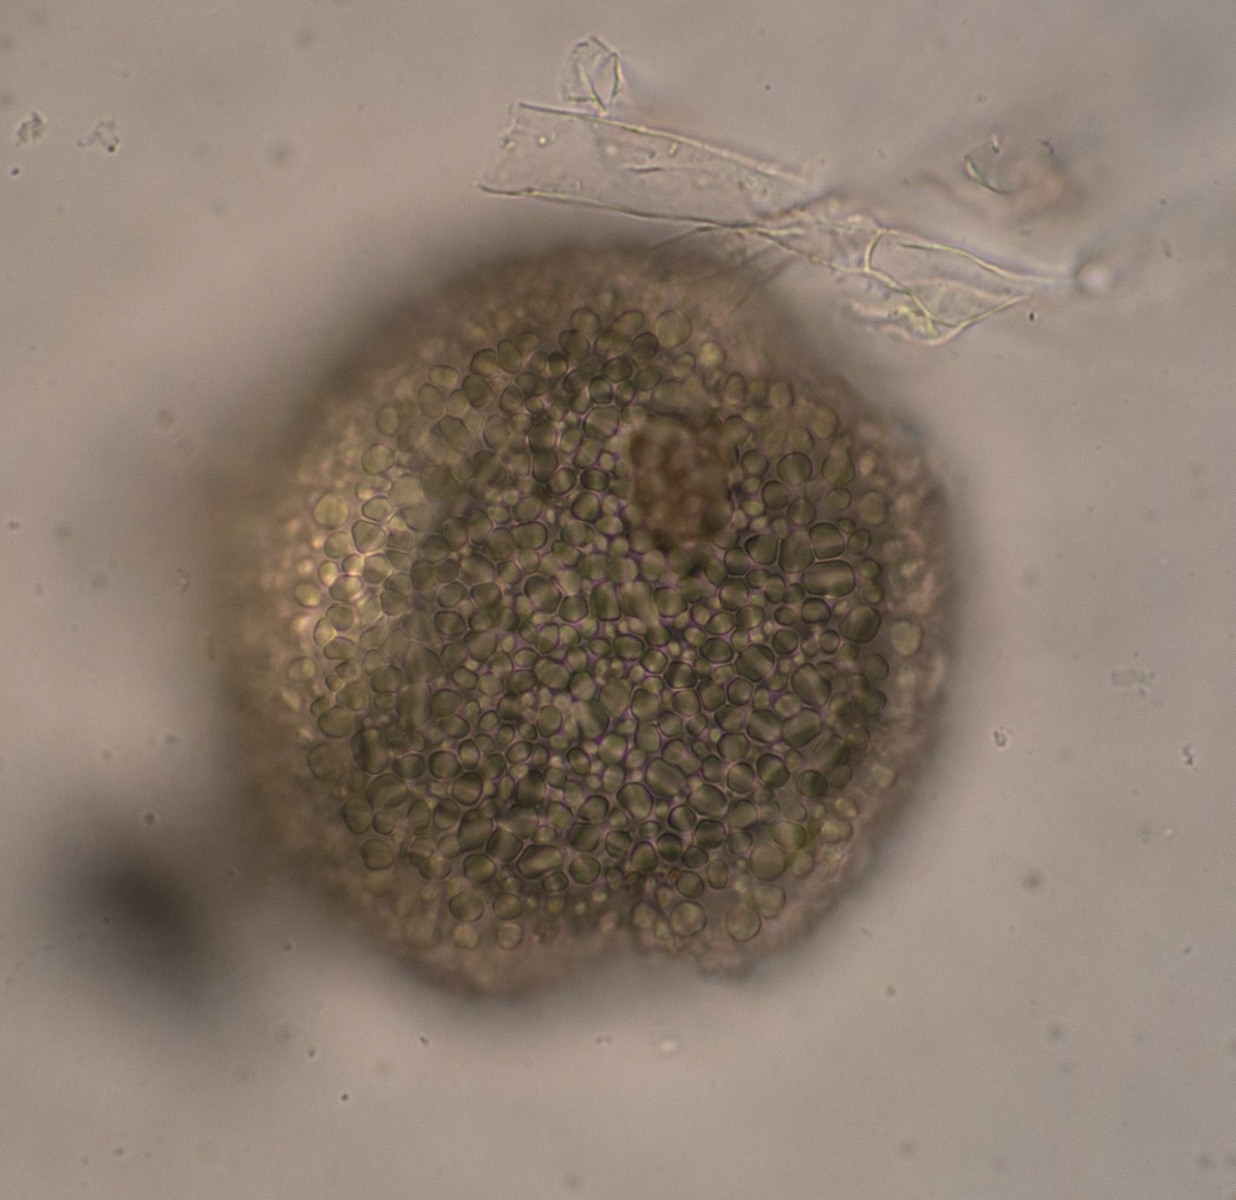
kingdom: Fungi
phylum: Ascomycota
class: Leotiomycetes
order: Helotiales
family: Erysiphaceae
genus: Podosphaera
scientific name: Podosphaera fugax
